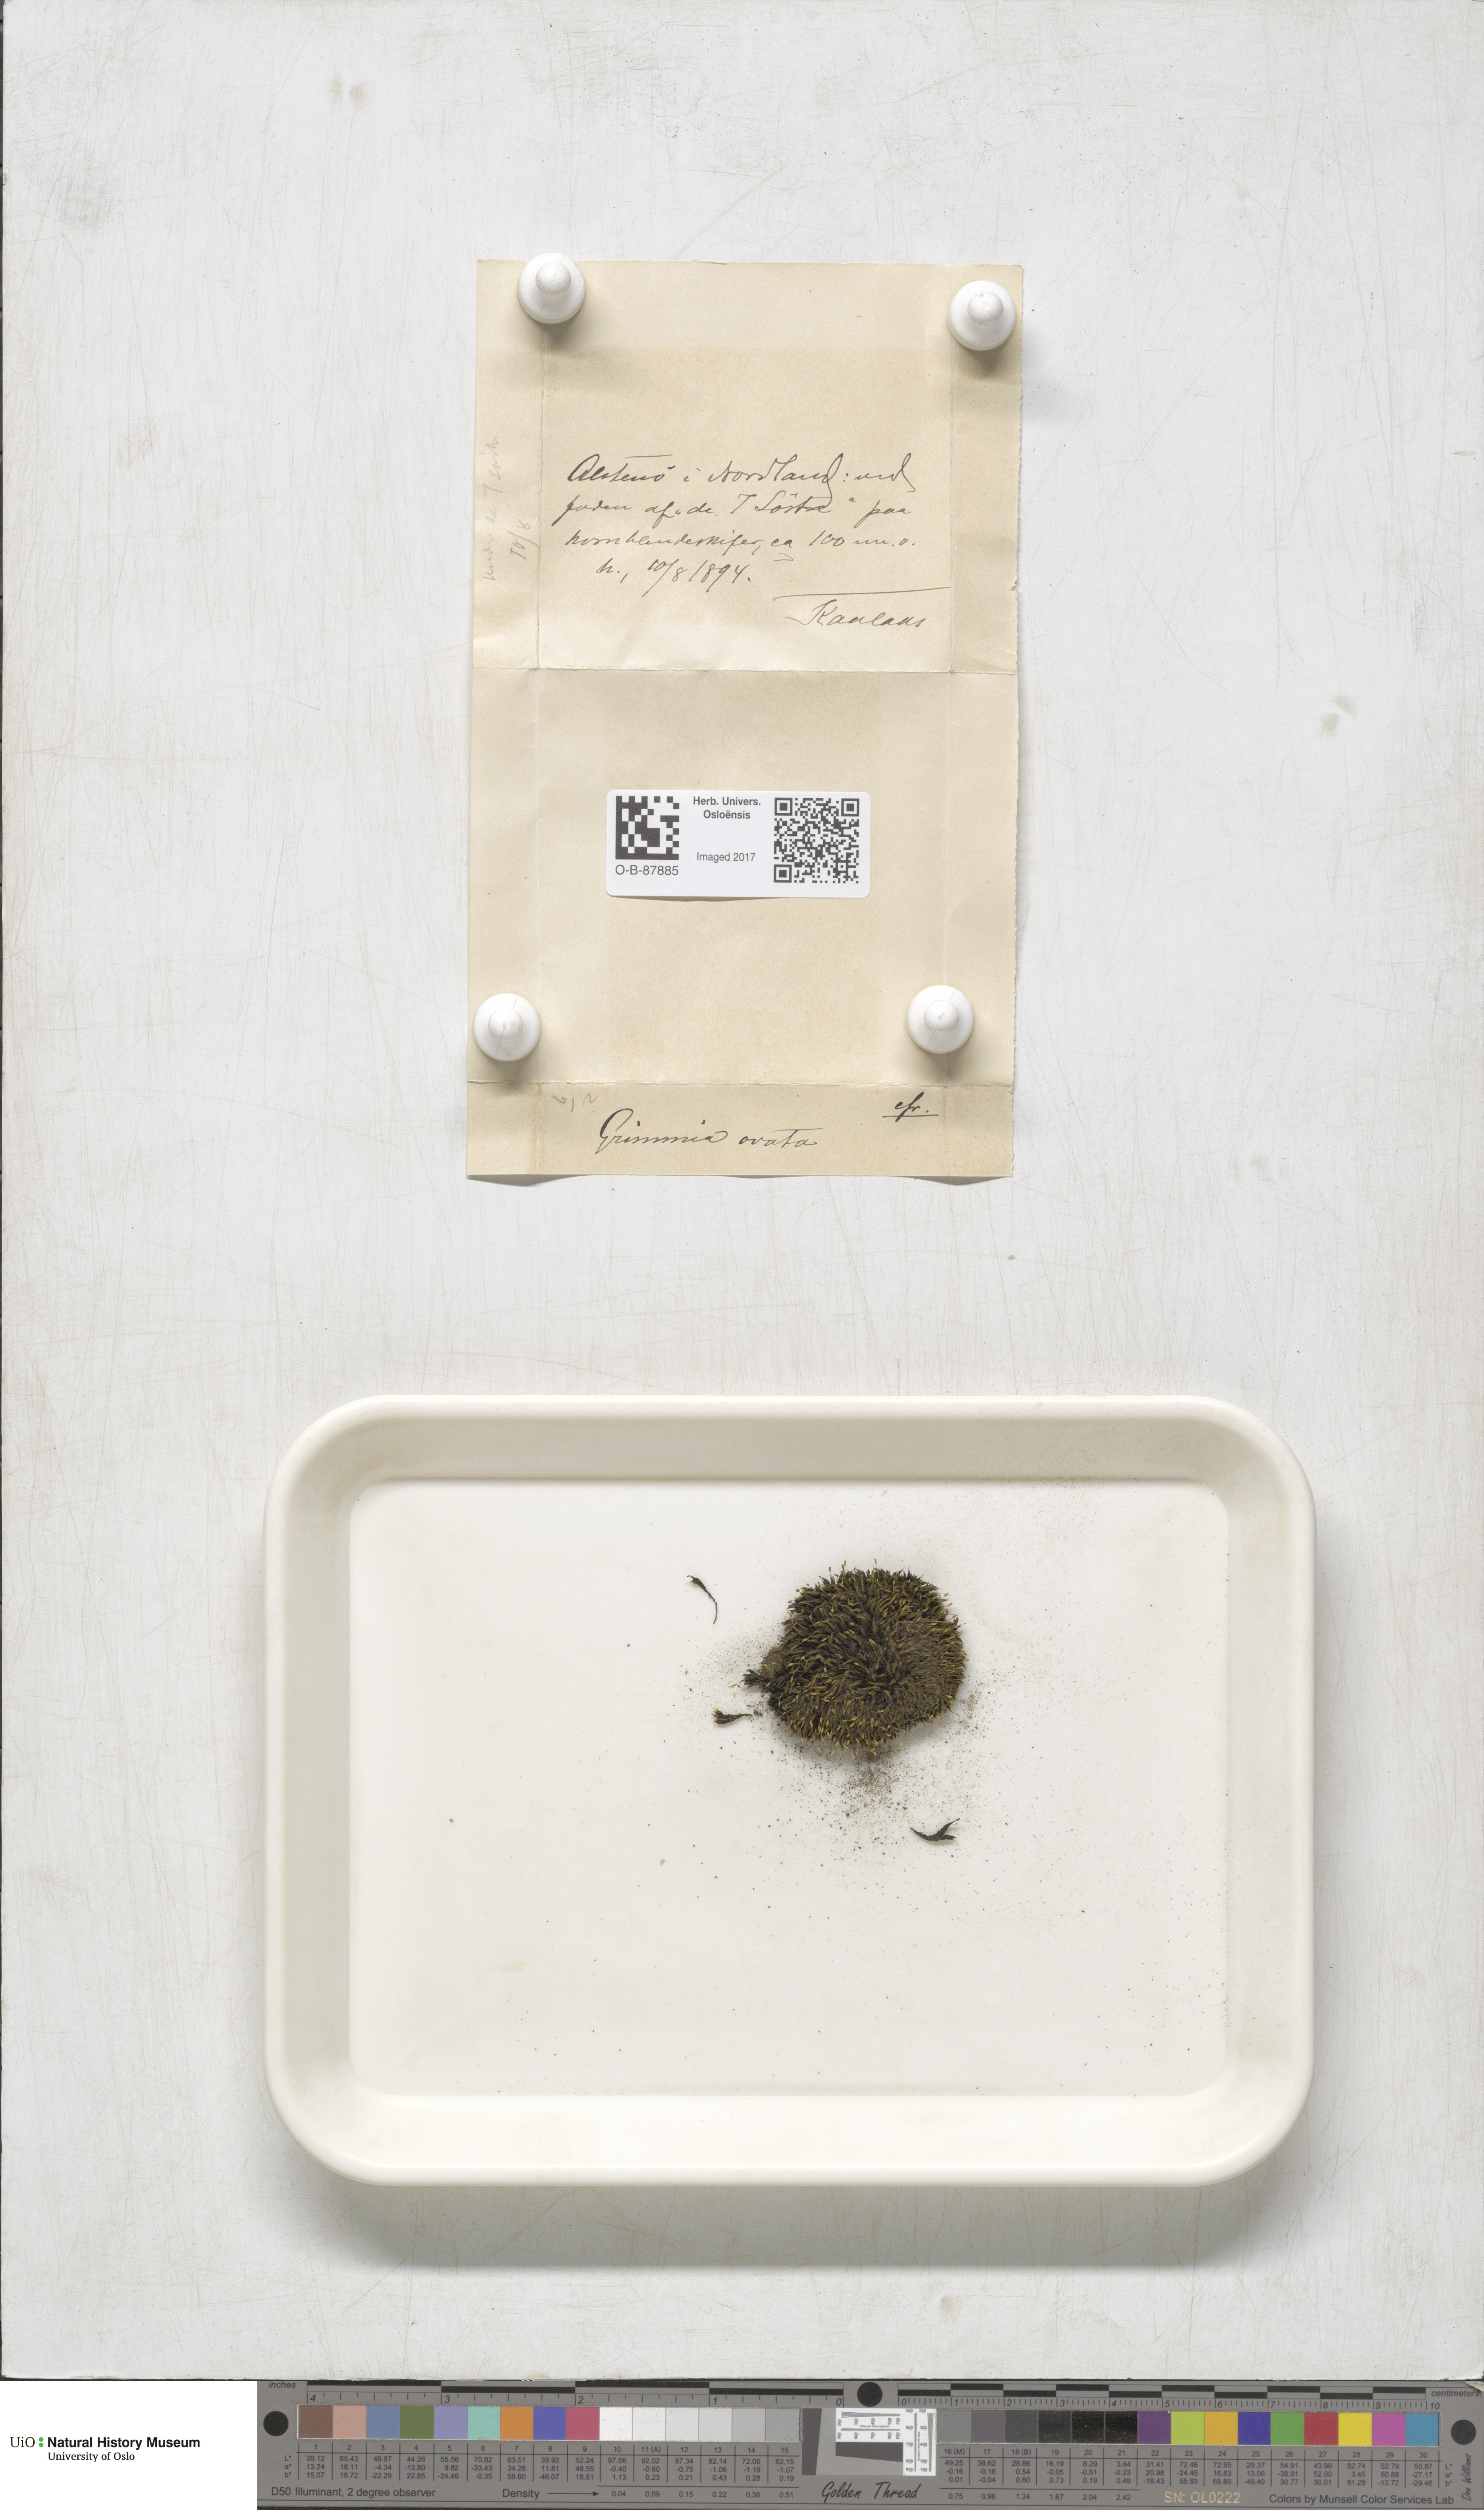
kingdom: Plantae
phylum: Bryophyta
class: Bryopsida
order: Grimmiales
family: Grimmiaceae
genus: Grimmia
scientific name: Grimmia ovalis
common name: Oval grimmia
